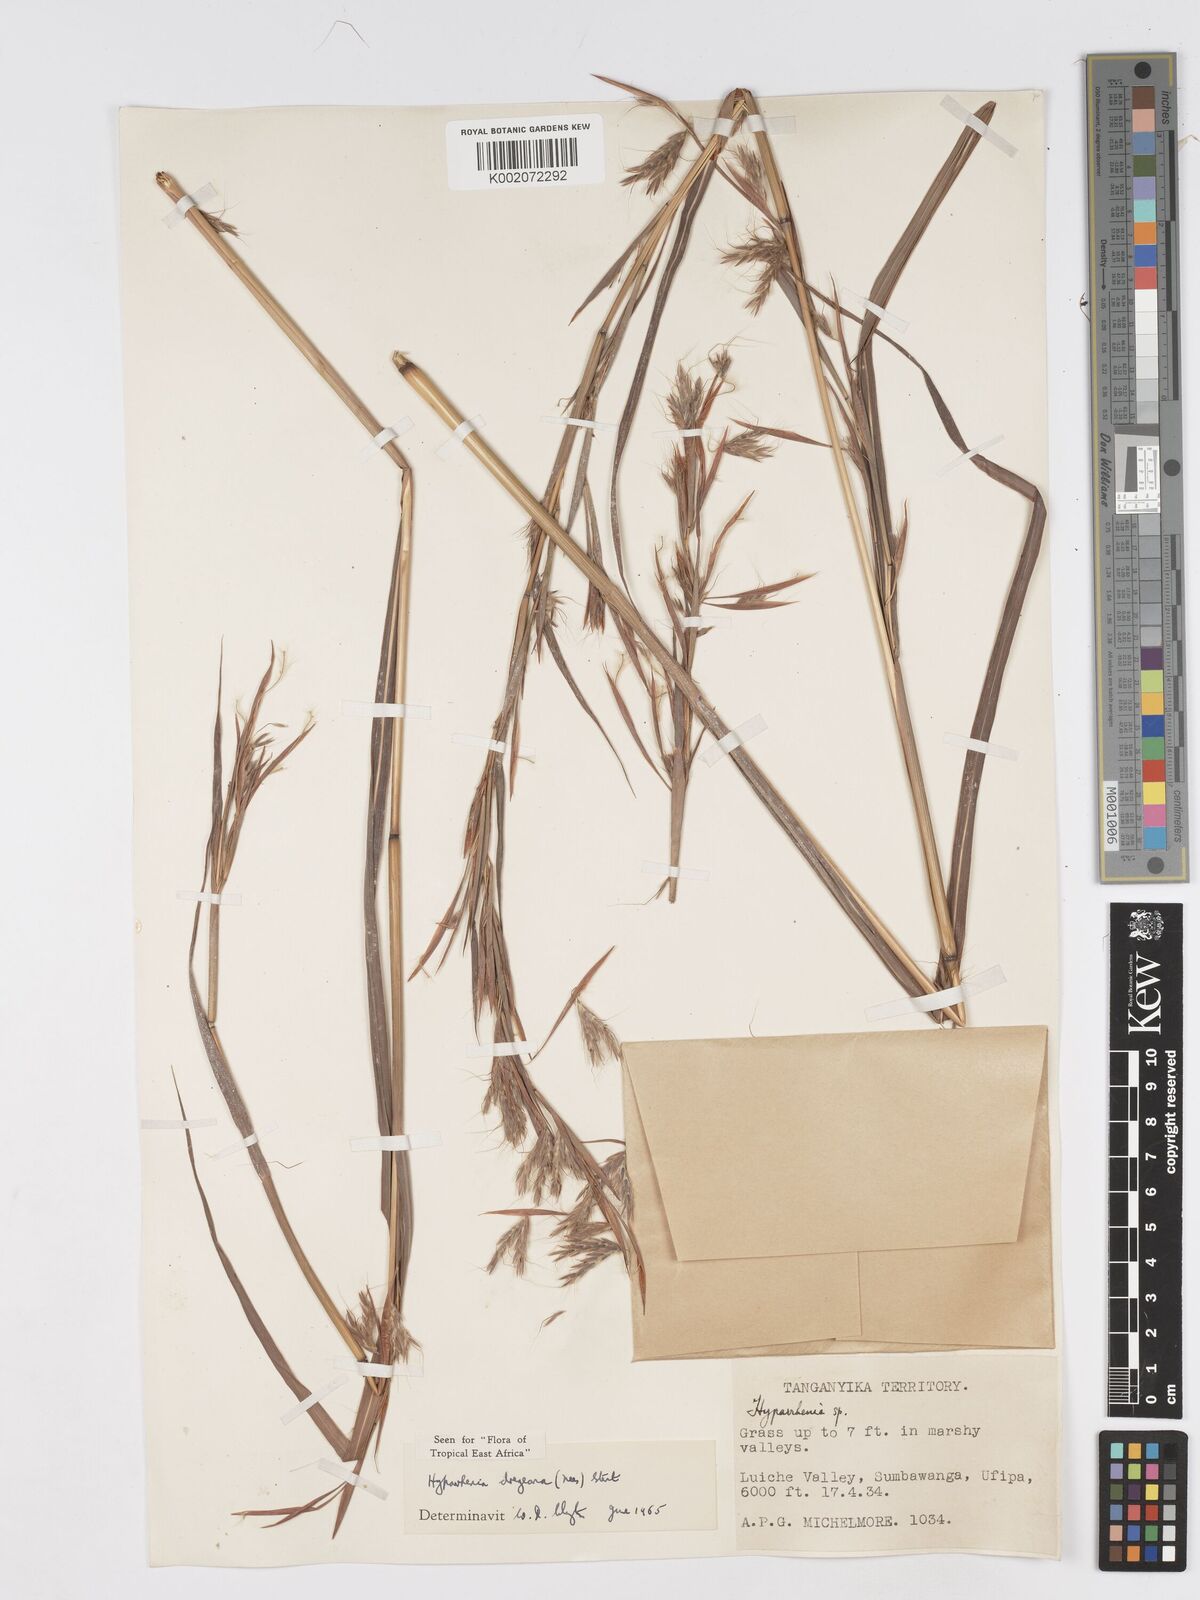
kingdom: Plantae
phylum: Tracheophyta
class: Liliopsida
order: Poales
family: Poaceae
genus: Hyparrhenia
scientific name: Hyparrhenia dregeana
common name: Silky thatching grass
